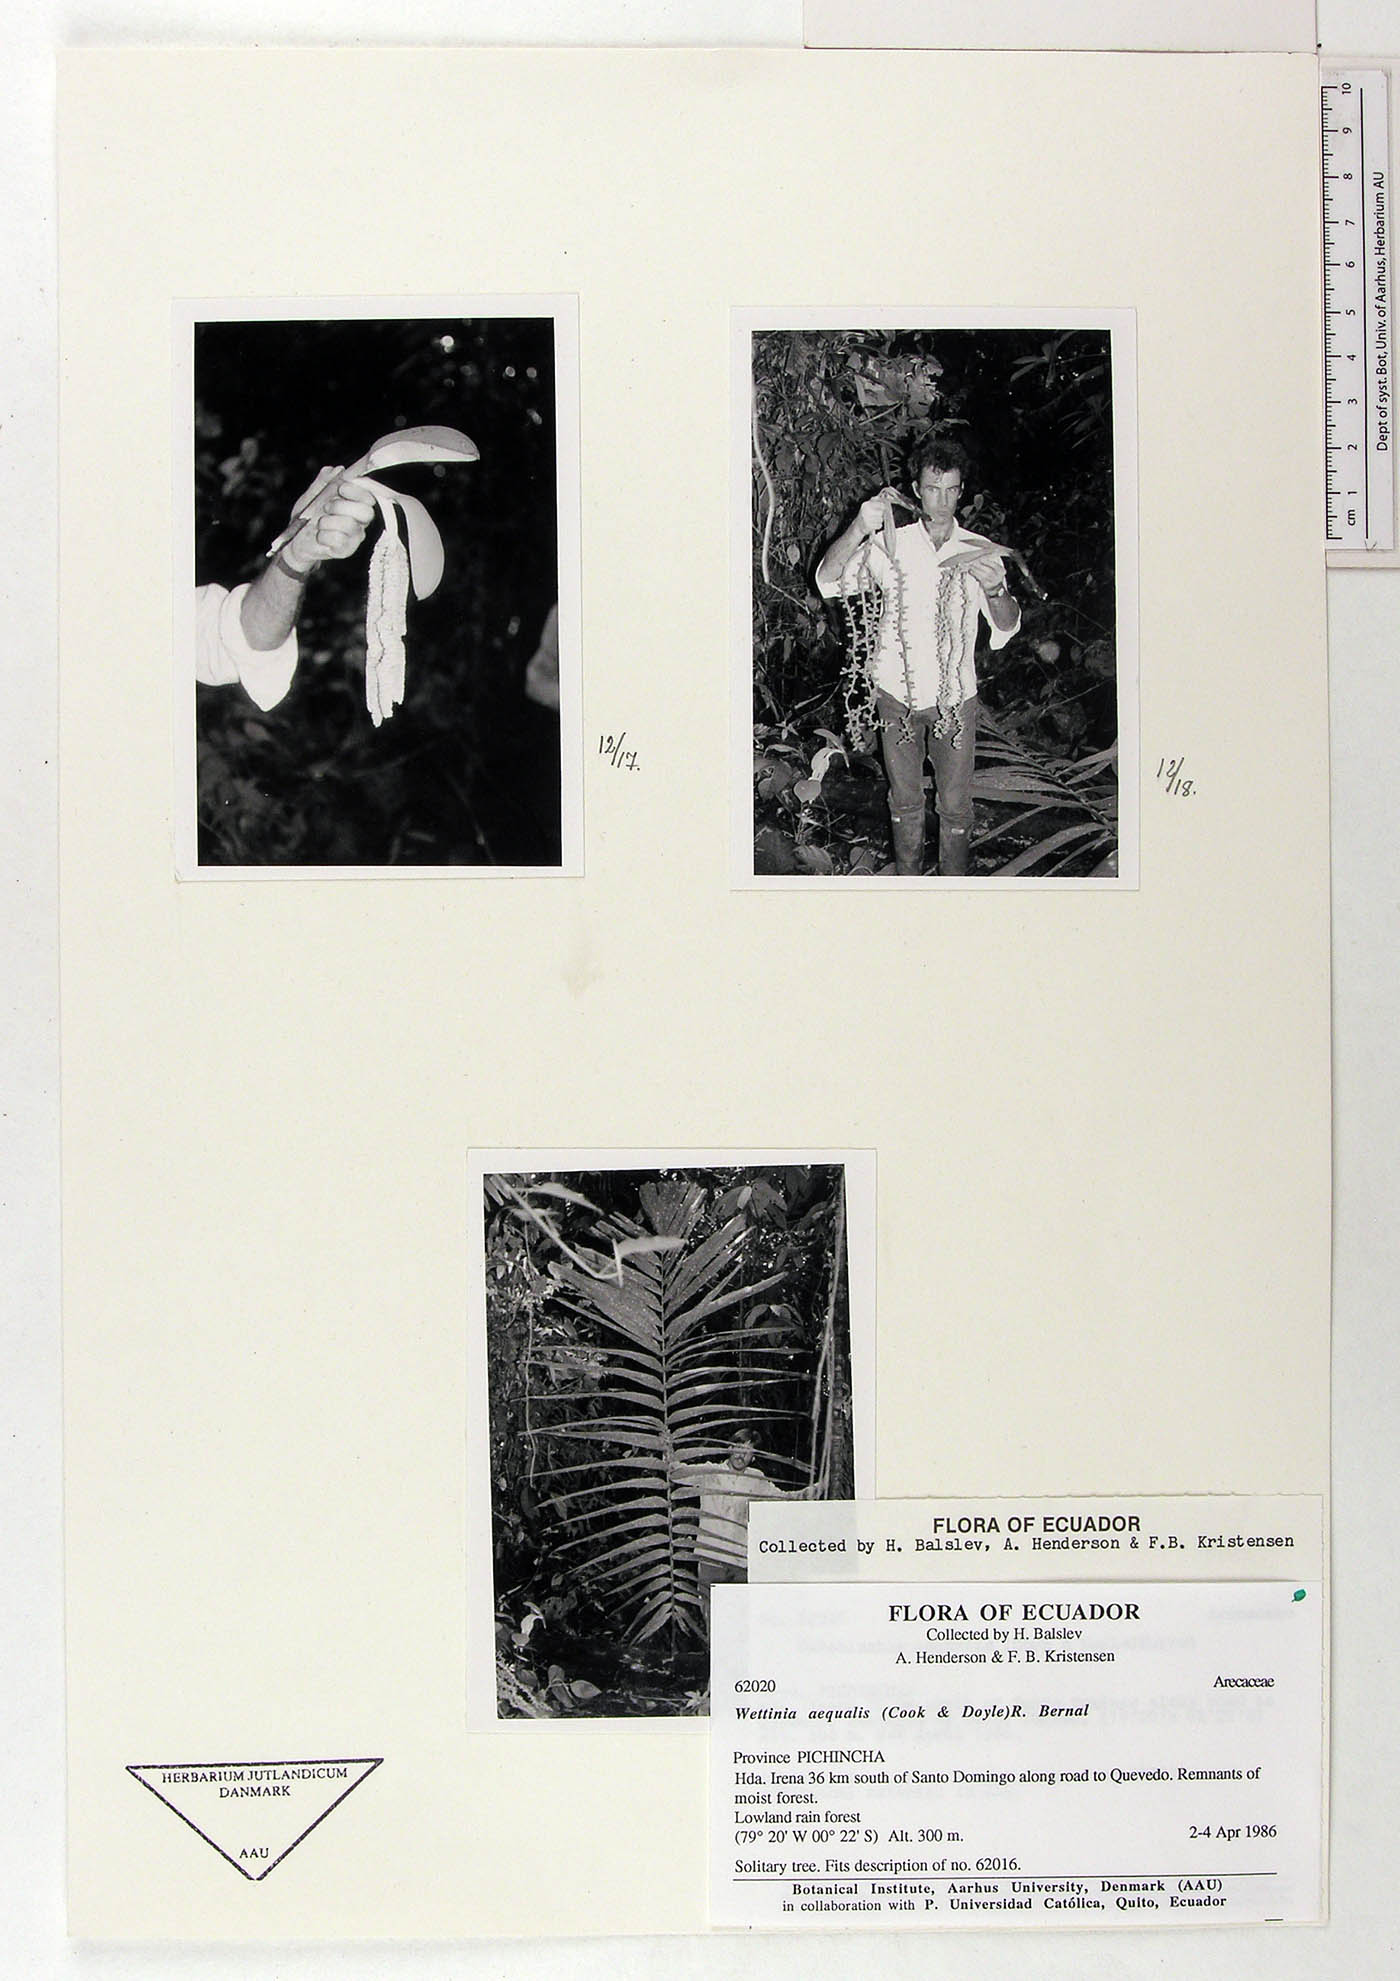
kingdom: Plantae
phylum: Tracheophyta
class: Liliopsida
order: Arecales
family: Arecaceae
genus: Wettinia
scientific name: Wettinia aequalis
